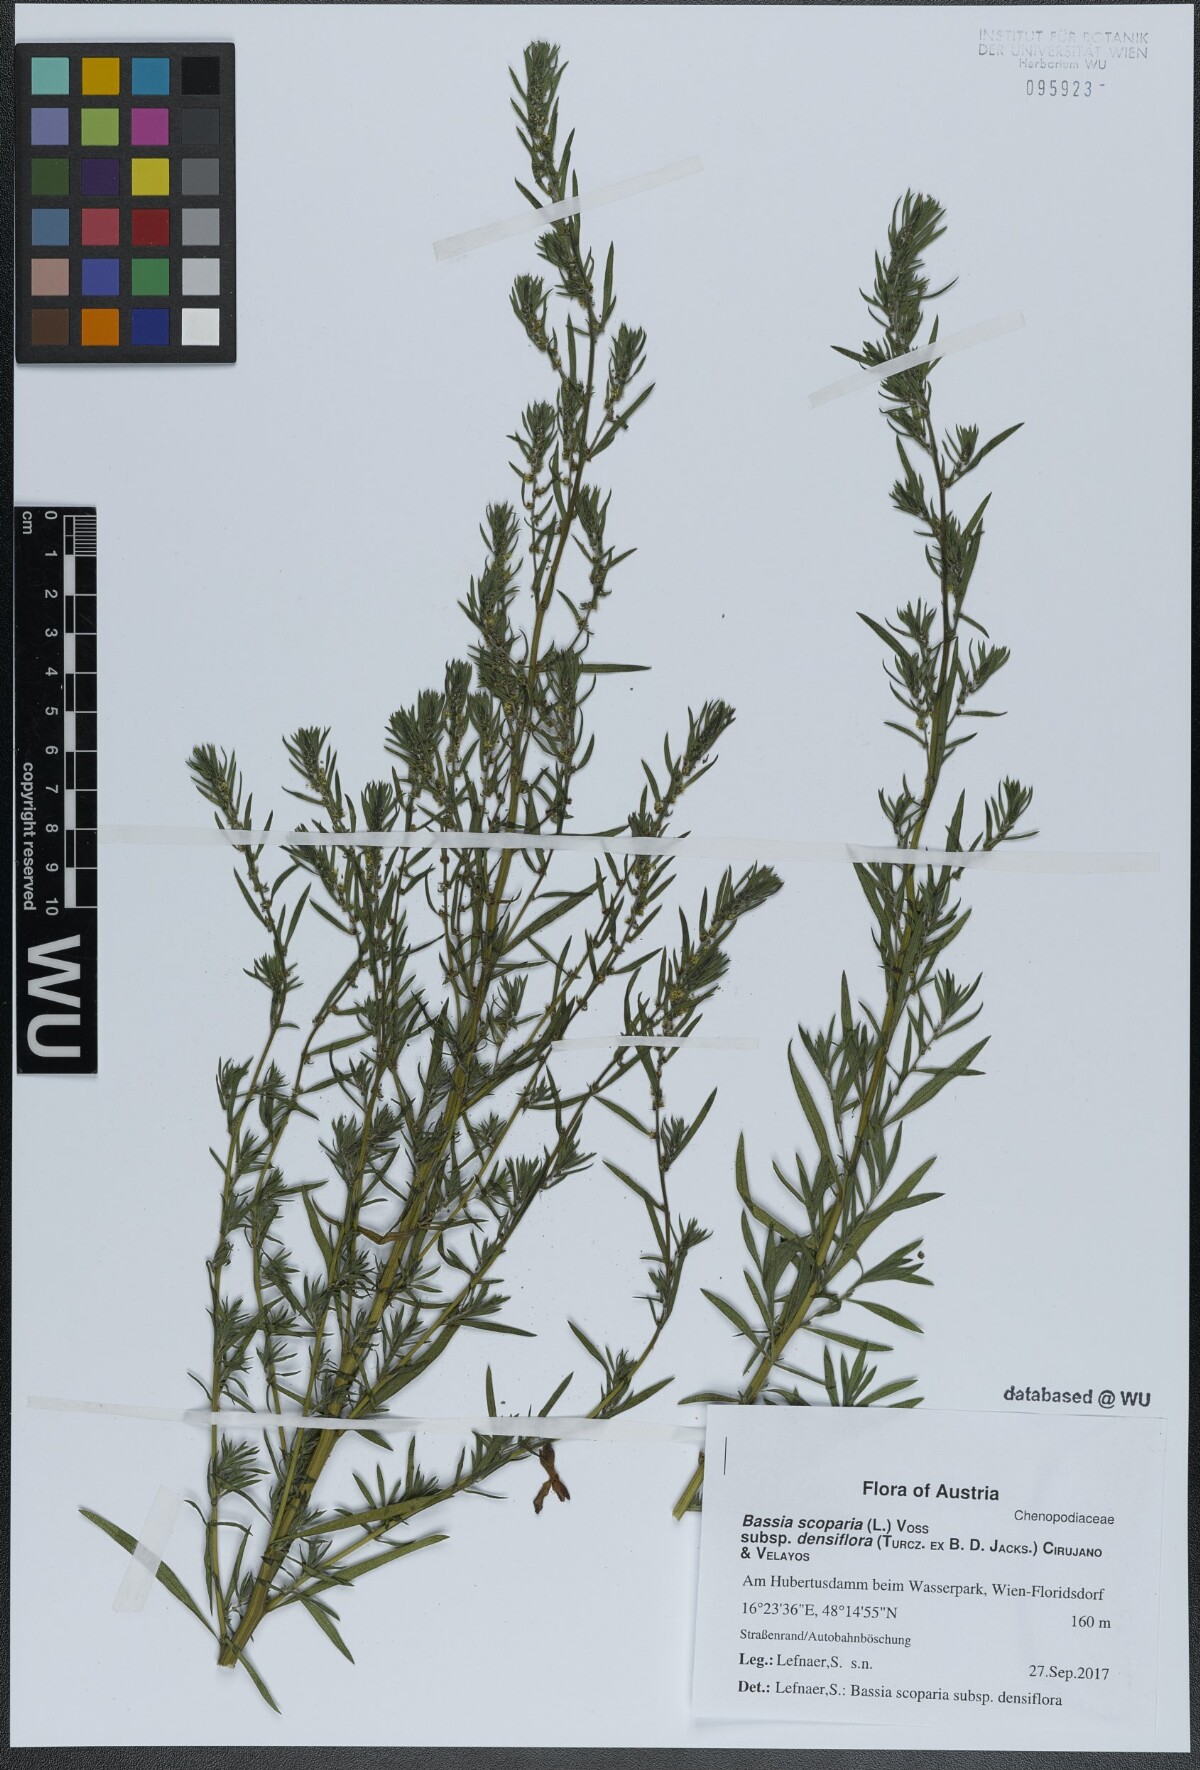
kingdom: Plantae
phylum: Tracheophyta
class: Magnoliopsida
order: Caryophyllales
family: Amaranthaceae
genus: Bassia
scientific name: Bassia scoparia
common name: Belvedere
